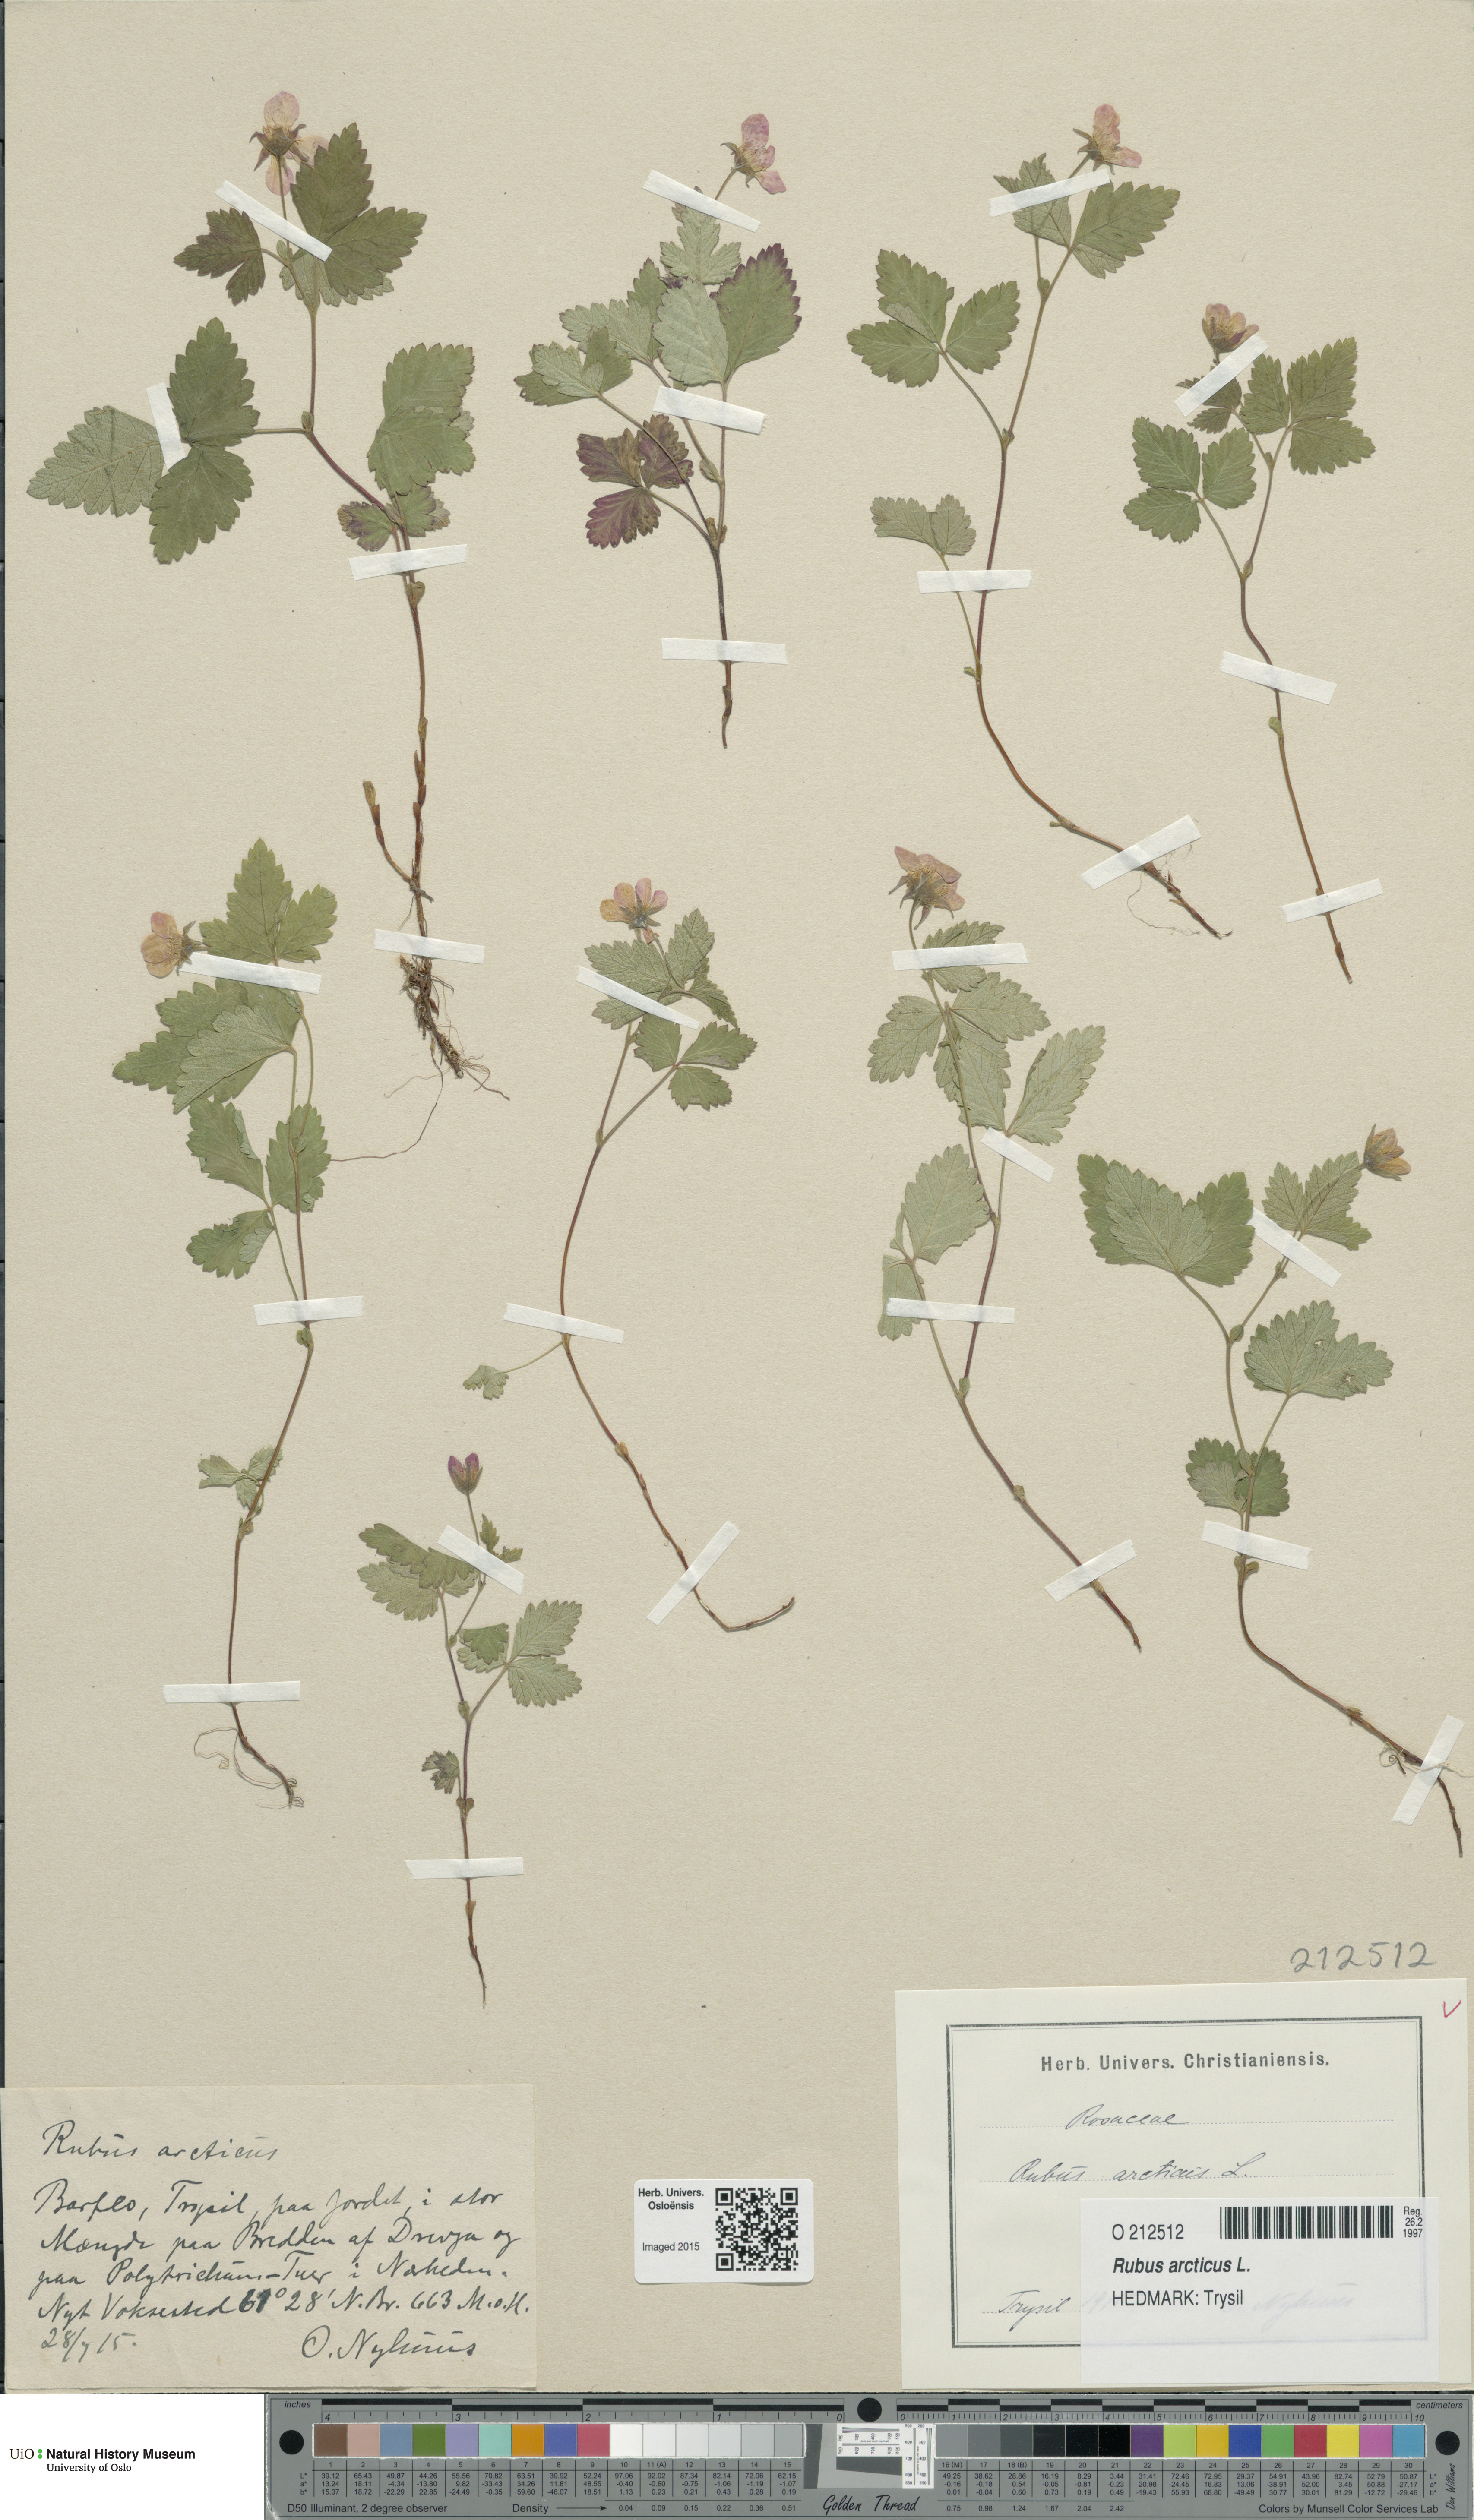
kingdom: Plantae
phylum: Tracheophyta
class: Magnoliopsida
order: Rosales
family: Rosaceae
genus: Rubus
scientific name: Rubus arcticus
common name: Arctic bramble
